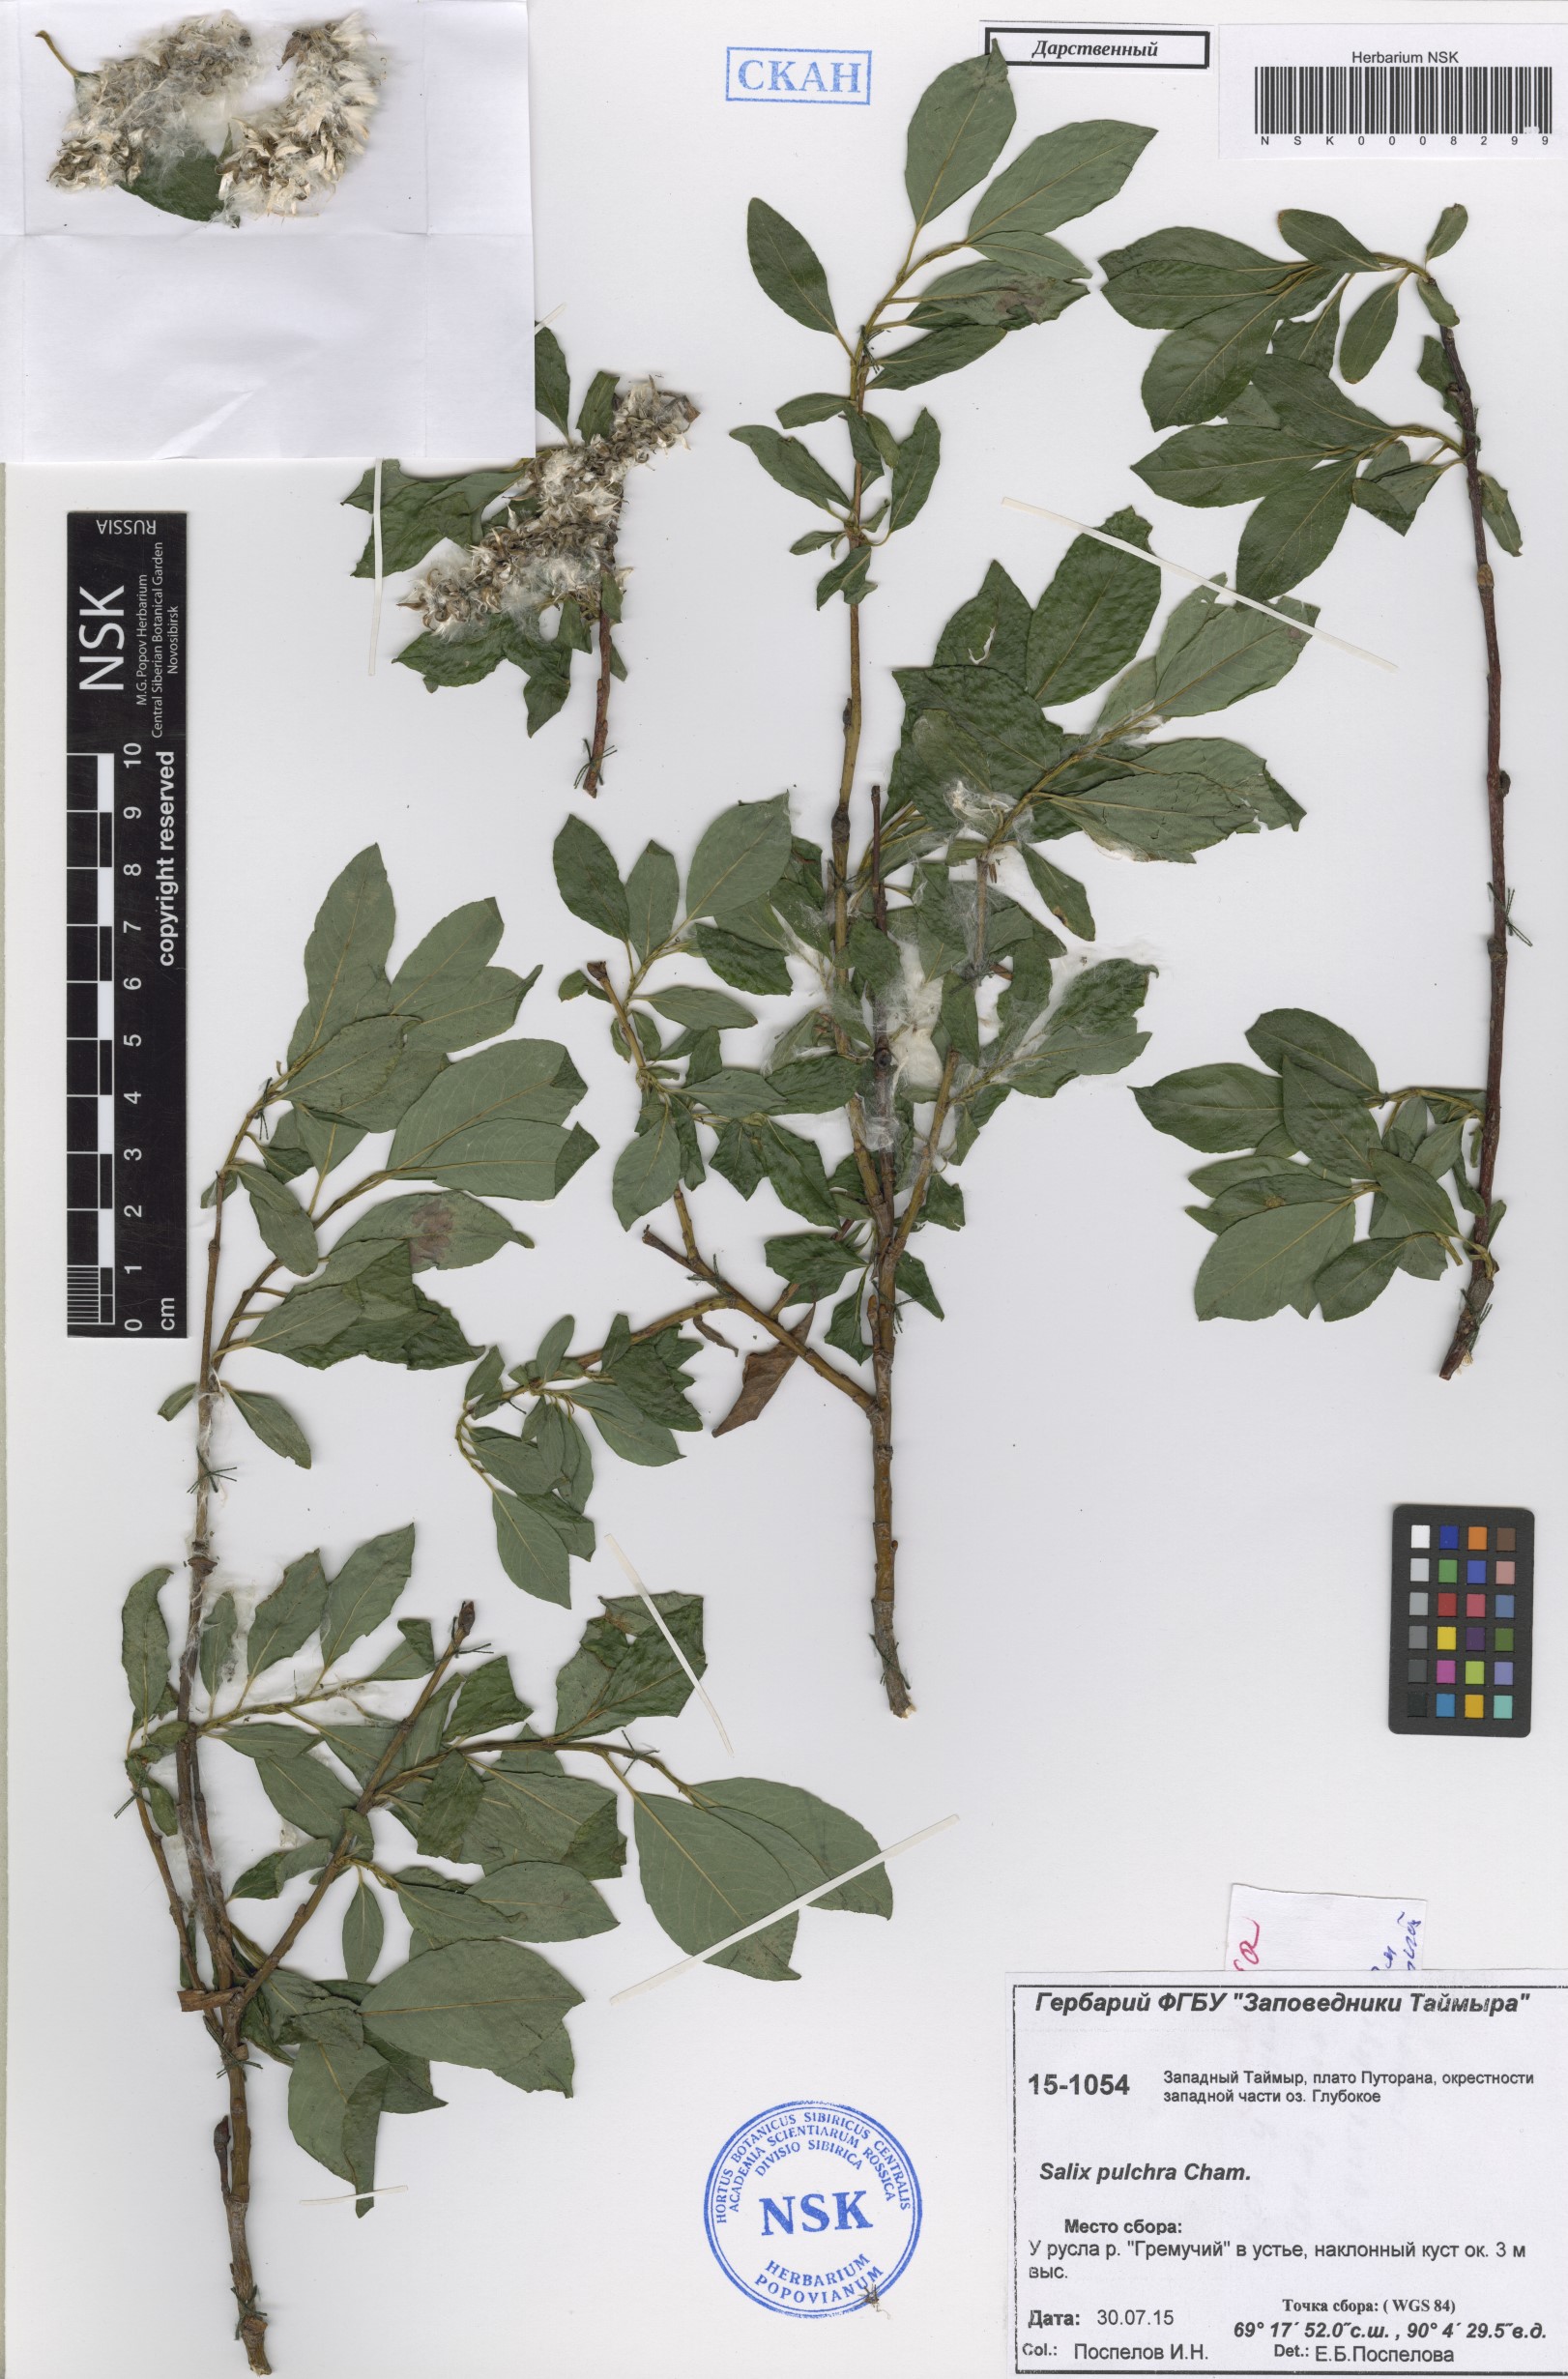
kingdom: Plantae
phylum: Tracheophyta
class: Magnoliopsida
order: Malpighiales
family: Salicaceae
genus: Salix
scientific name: Salix pulchra
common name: Diamond-leaved willow
